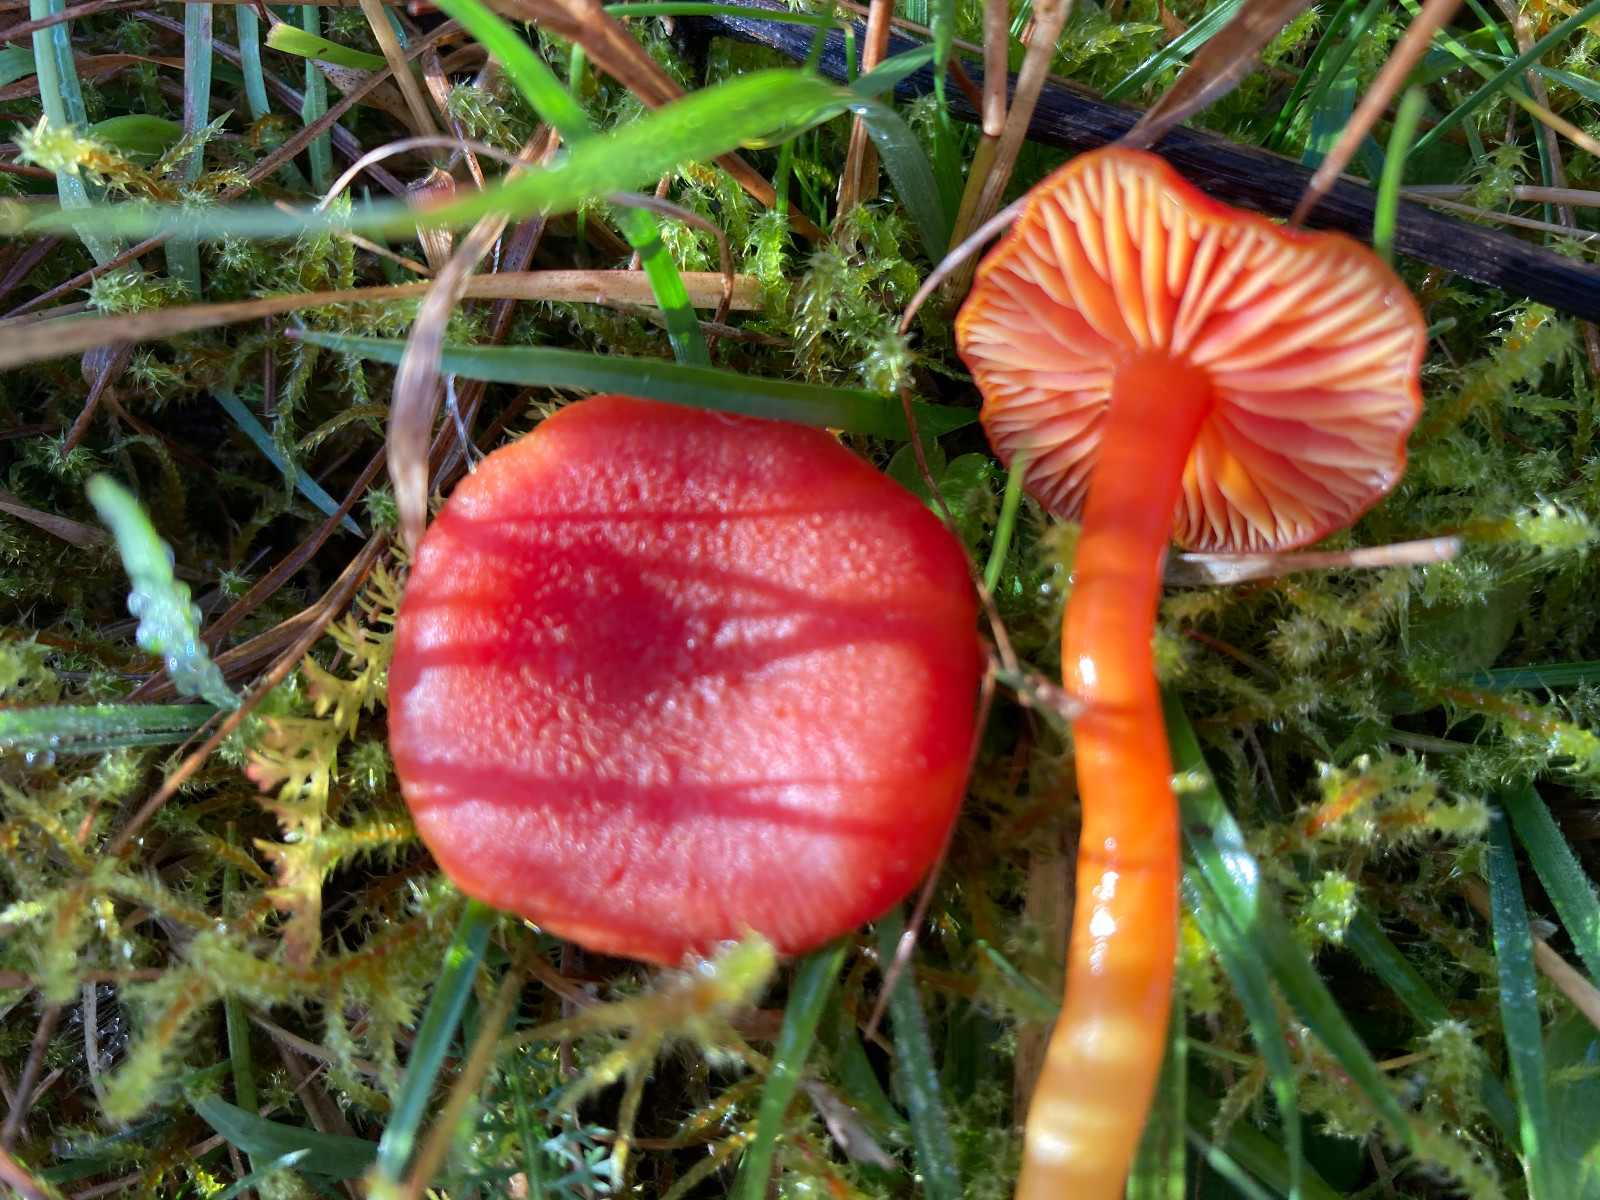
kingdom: Fungi
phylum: Basidiomycota
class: Agaricomycetes
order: Agaricales
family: Hygrophoraceae
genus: Hygrocybe
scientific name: Hygrocybe miniata
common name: mønje-vokshat
